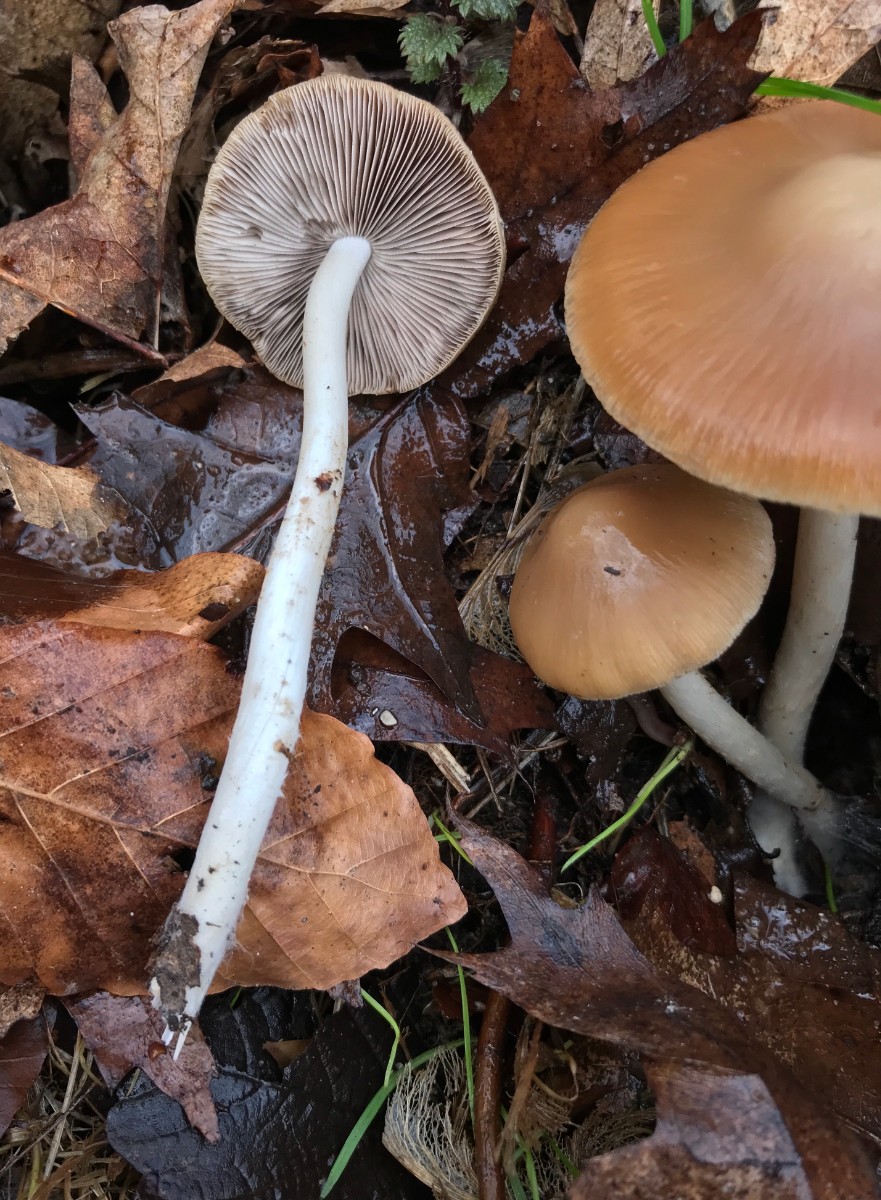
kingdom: Fungi
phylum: Basidiomycota
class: Agaricomycetes
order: Agaricales
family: Psathyrellaceae
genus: Psathyrella
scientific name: Psathyrella spadiceogrisea
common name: gråbrun mørkhat
